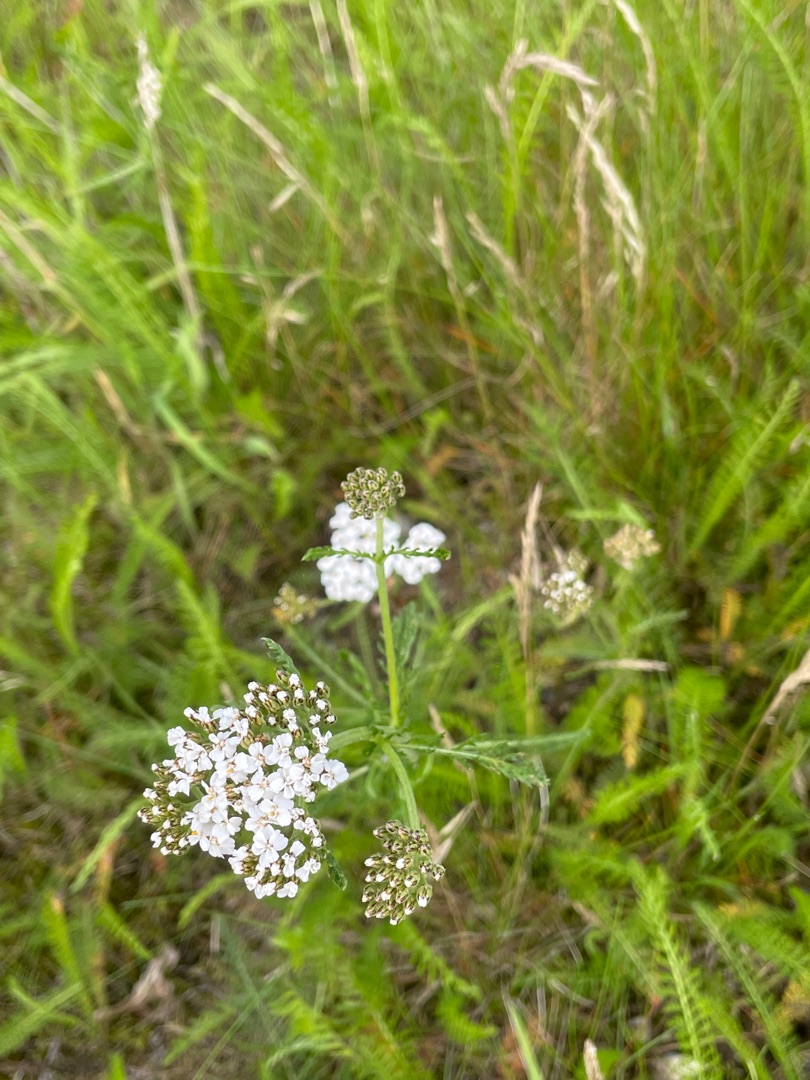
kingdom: Plantae
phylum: Tracheophyta
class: Magnoliopsida
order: Asterales
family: Asteraceae
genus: Achillea
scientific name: Achillea millefolium
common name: Almindelig røllike
